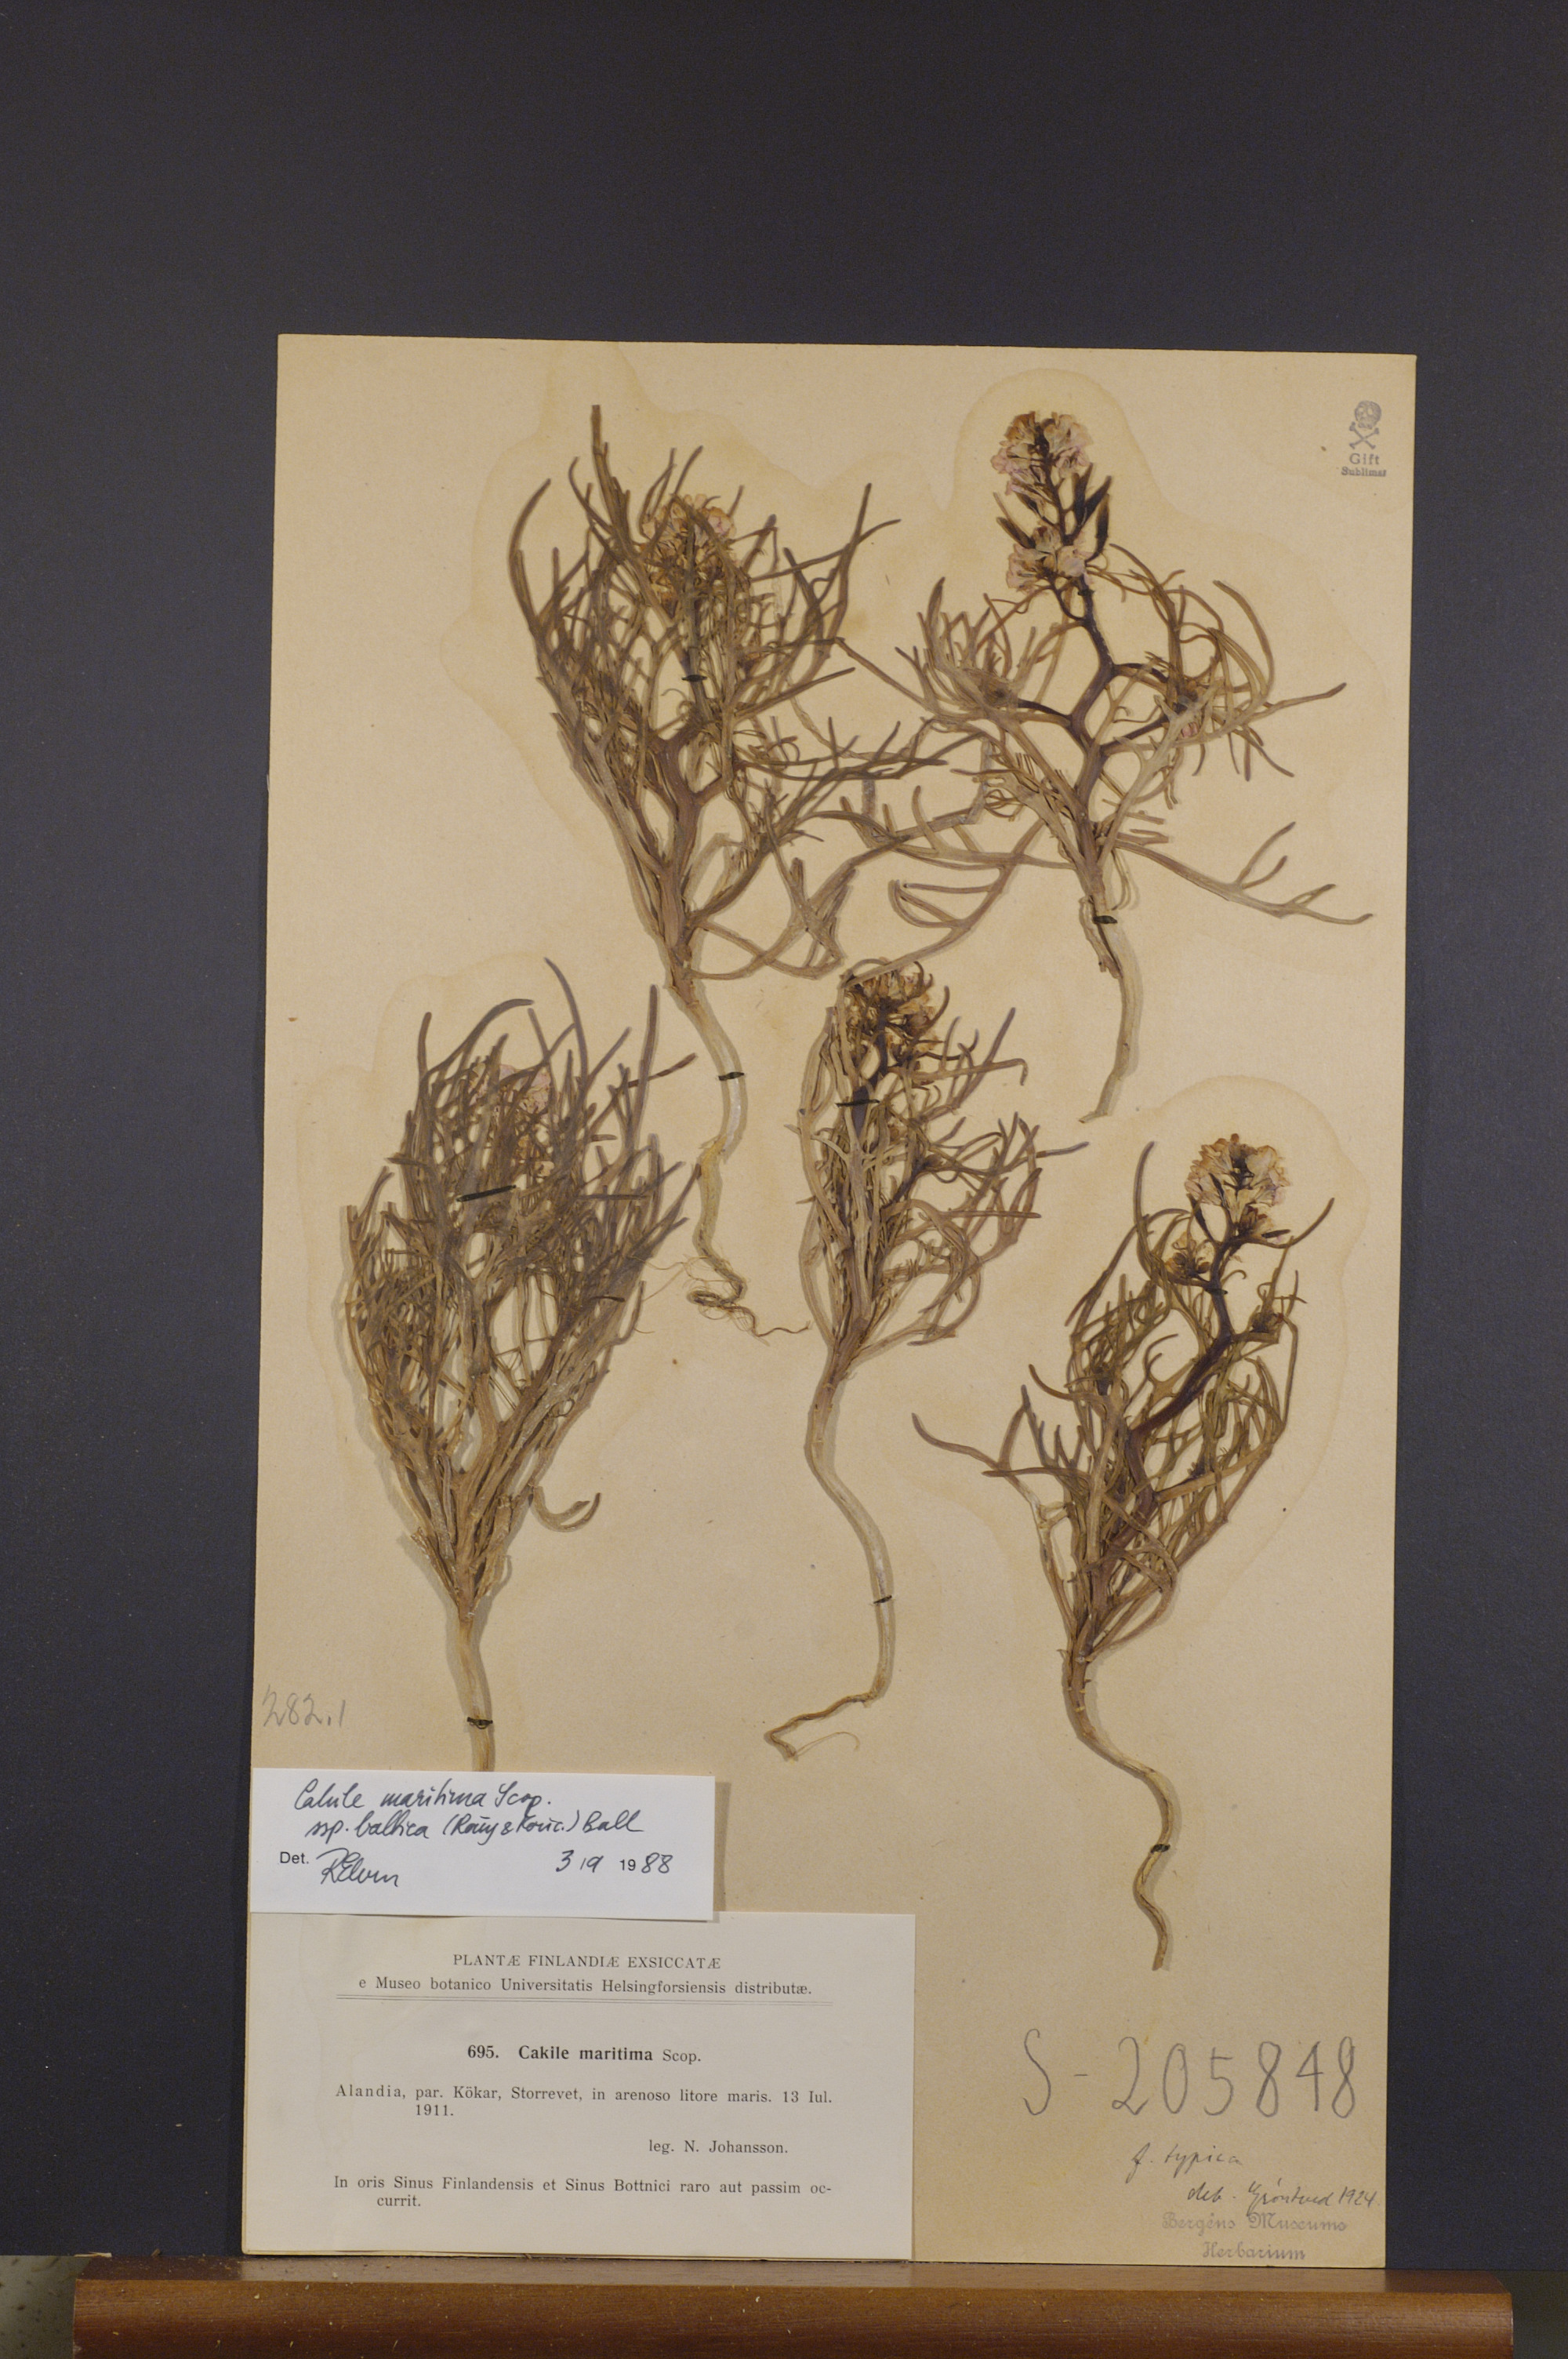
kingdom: Plantae
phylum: Tracheophyta
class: Magnoliopsida
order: Brassicales
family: Brassicaceae
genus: Cakile
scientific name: Cakile maritima
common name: Sea rocket
